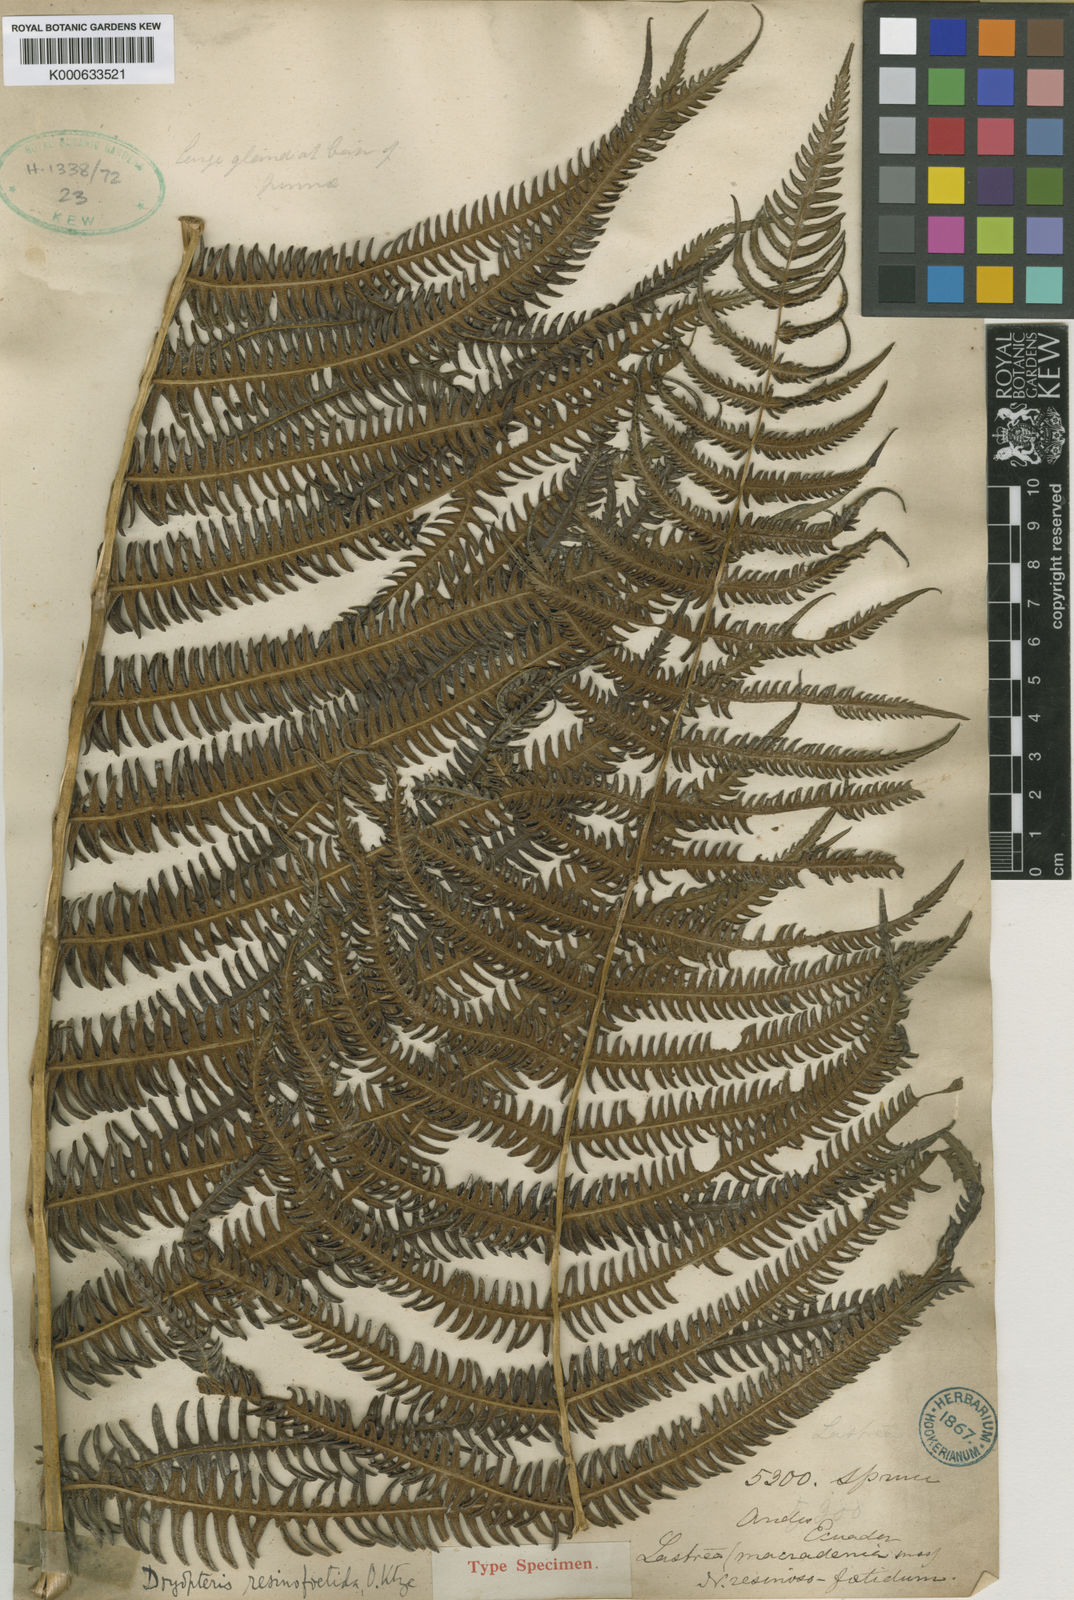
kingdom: Plantae
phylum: Tracheophyta
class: Polypodiopsida
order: Polypodiales
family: Thelypteridaceae
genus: Amauropelta
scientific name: Amauropelta
